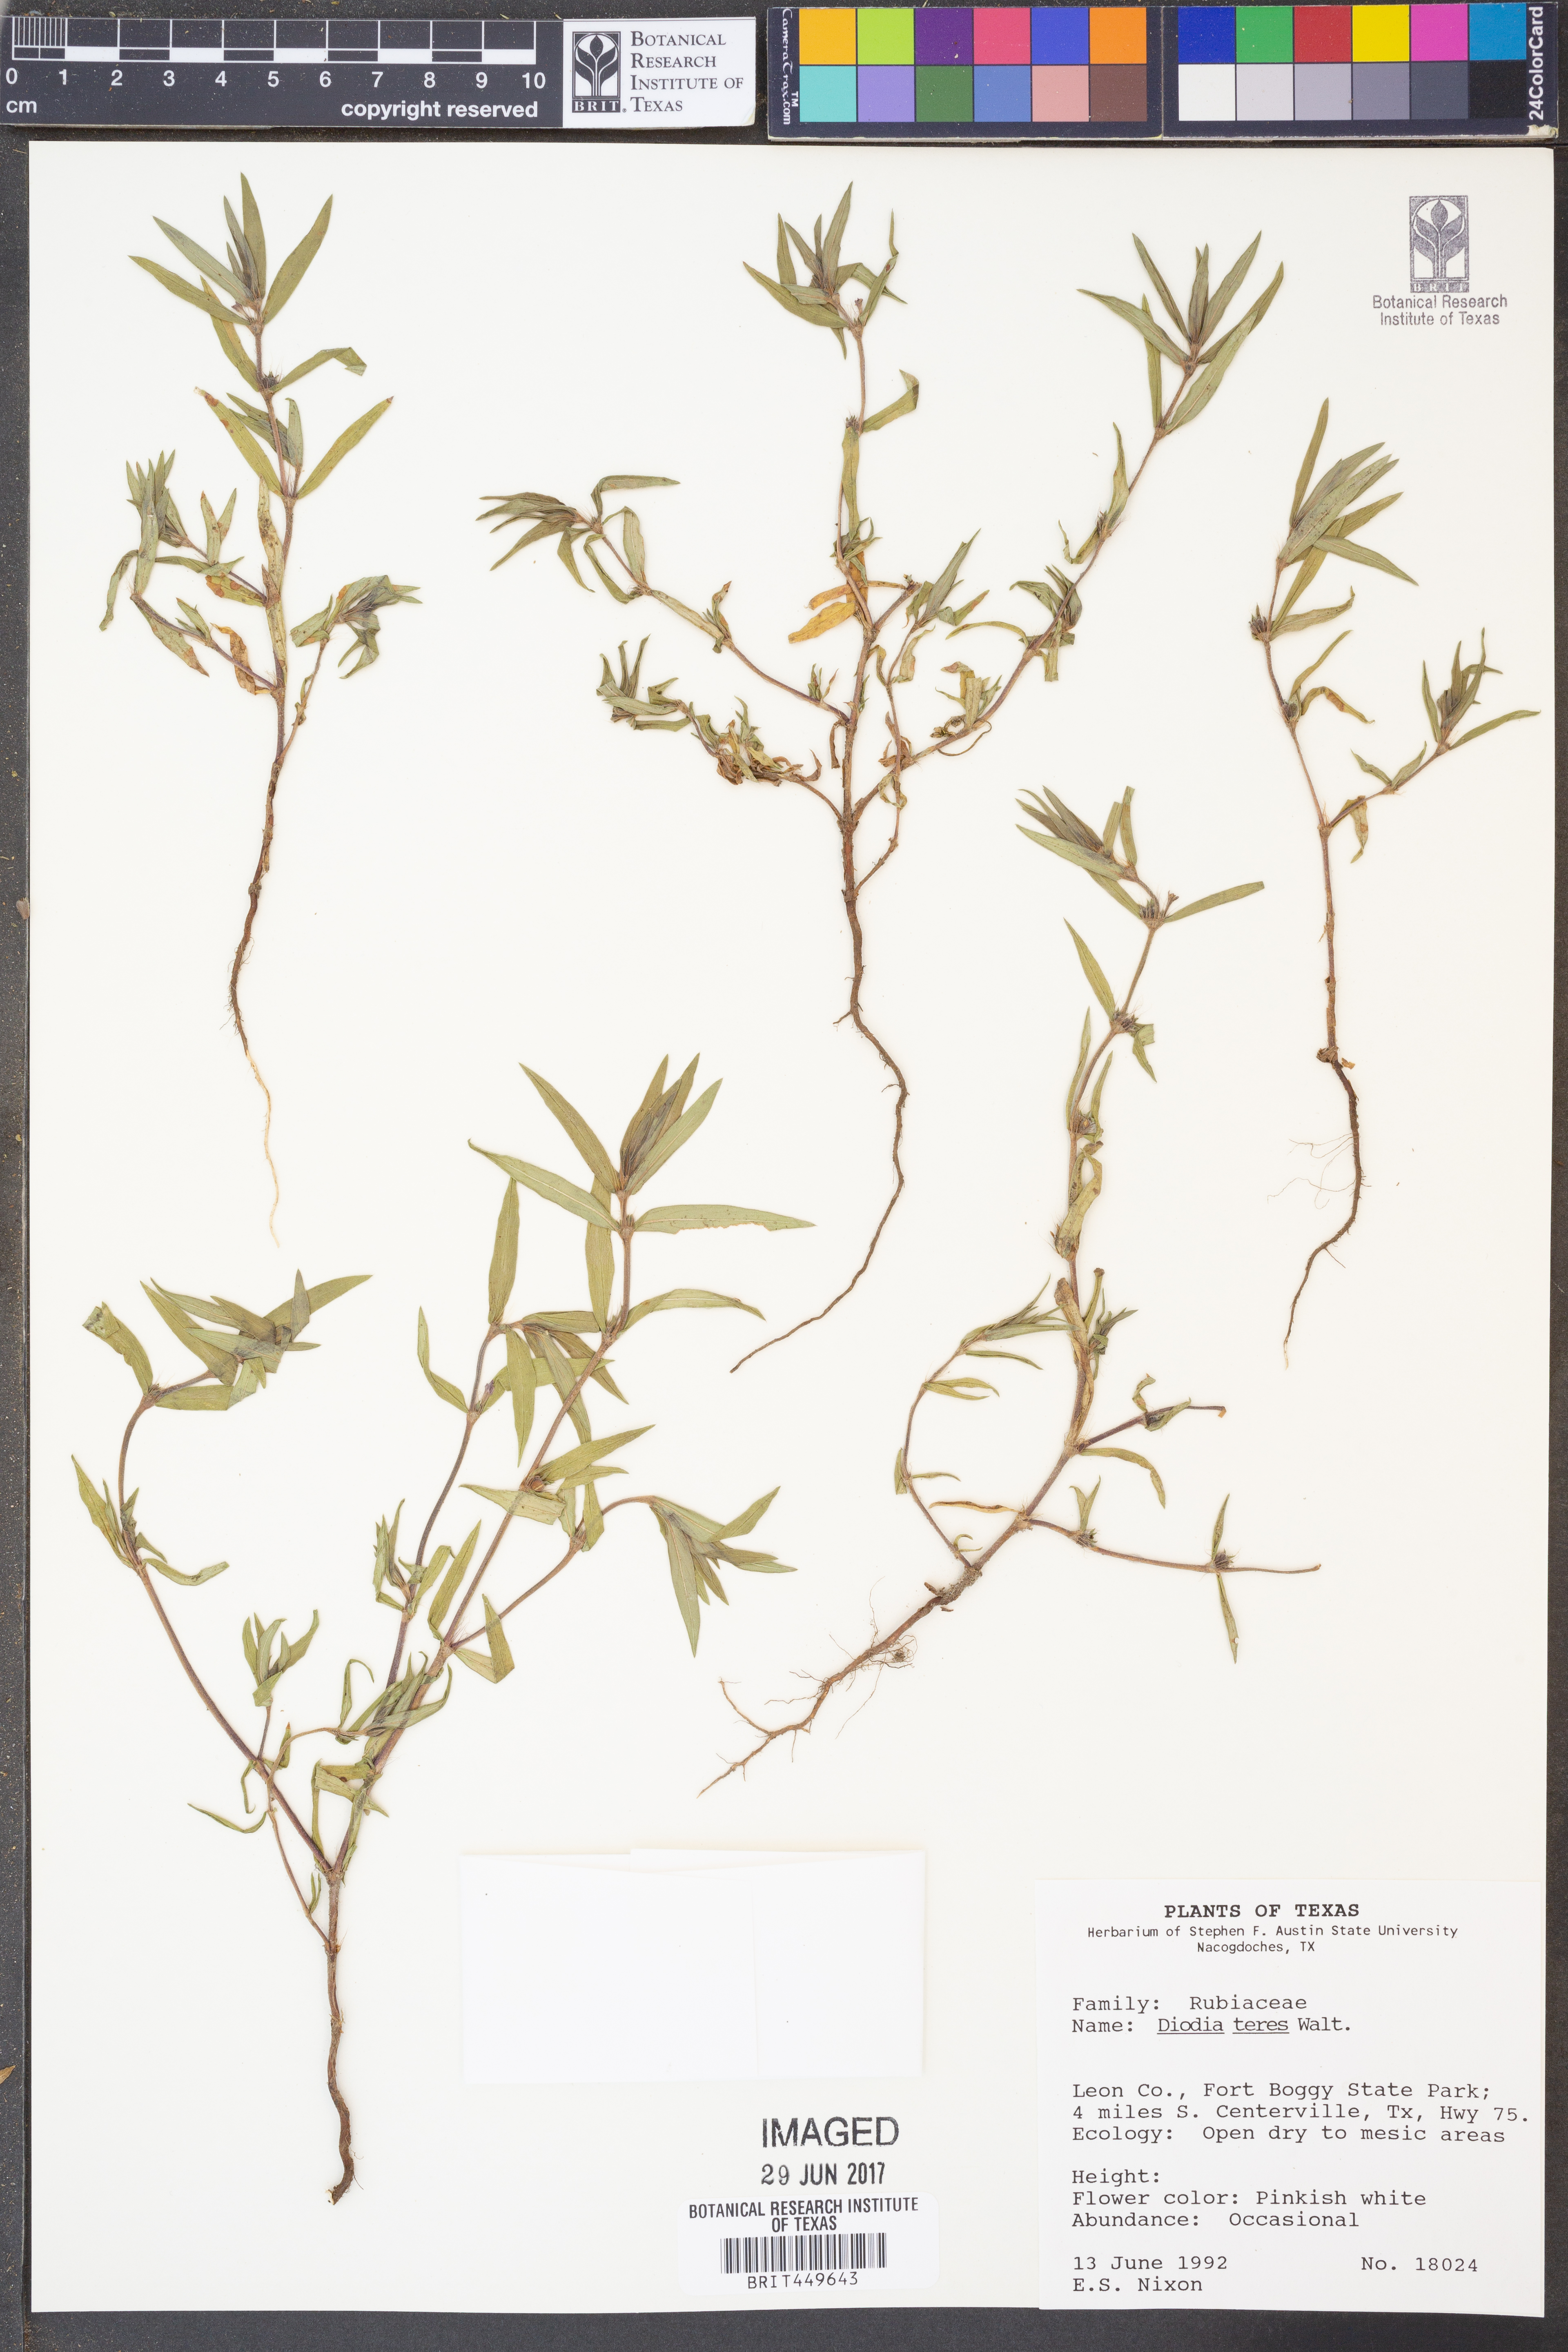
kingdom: Plantae
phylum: Tracheophyta
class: Magnoliopsida
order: Gentianales
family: Rubiaceae
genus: Hexasepalum
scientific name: Hexasepalum teres
